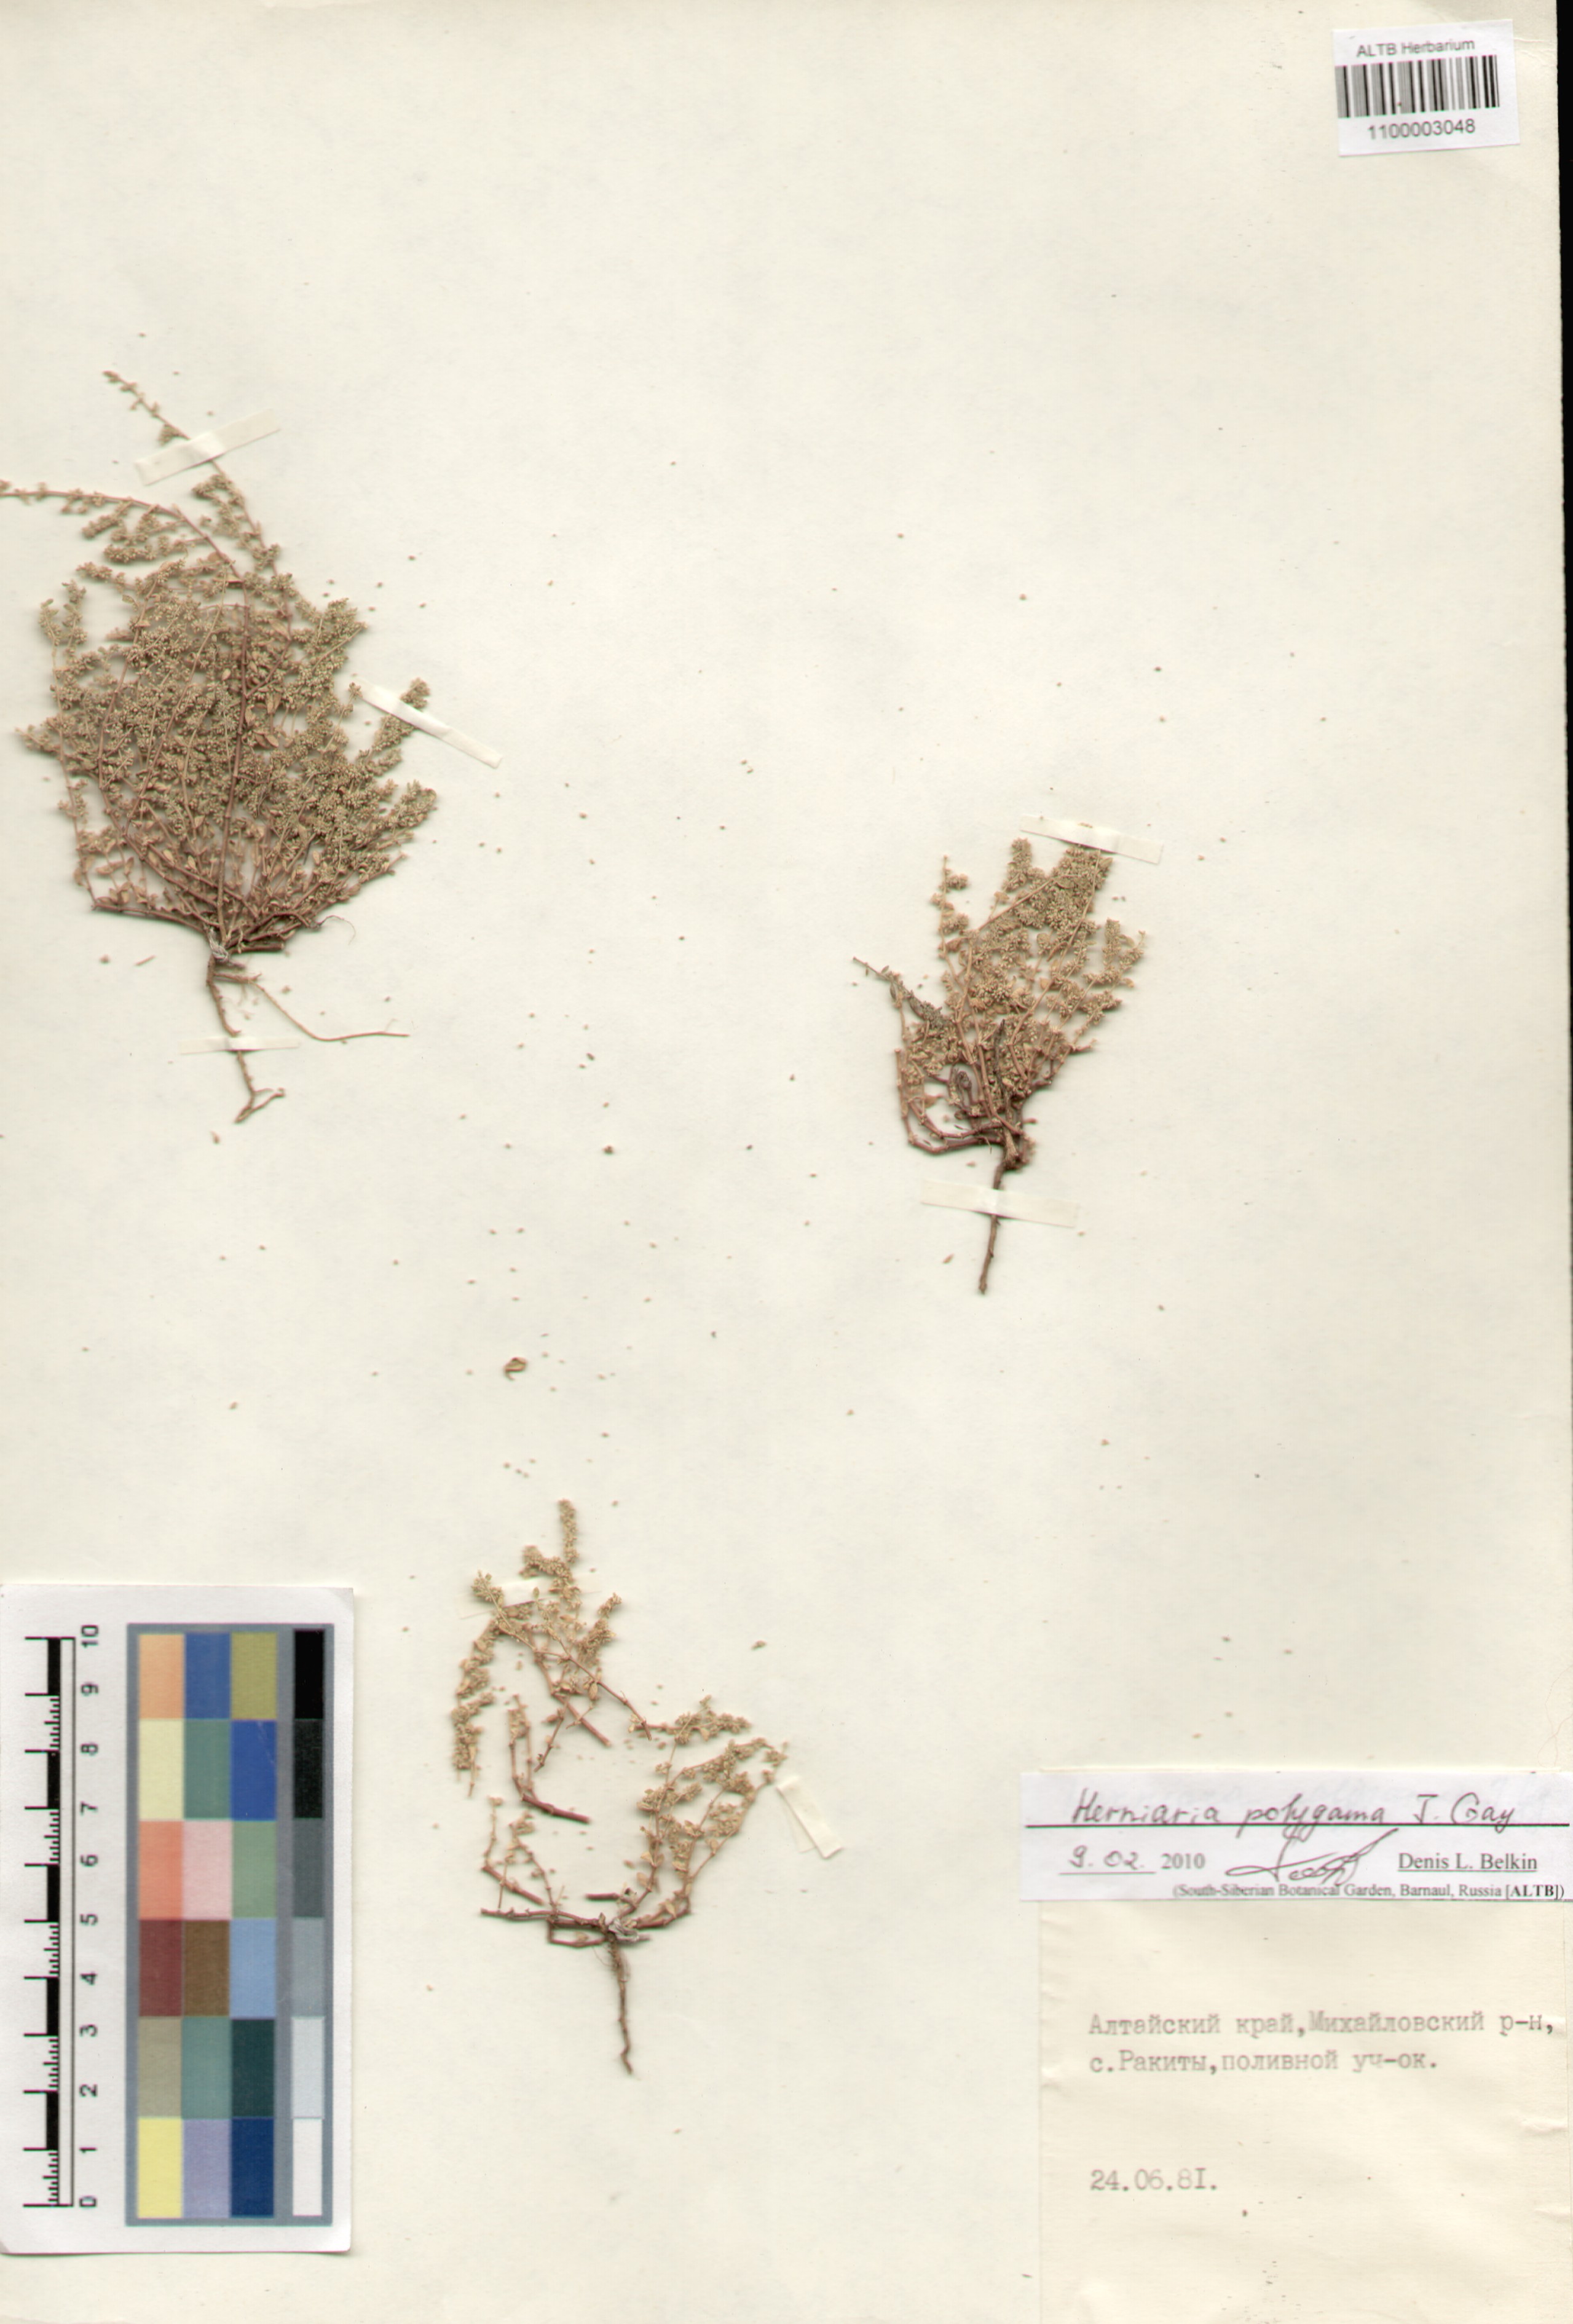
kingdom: Plantae
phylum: Tracheophyta
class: Magnoliopsida
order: Caryophyllales
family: Caryophyllaceae
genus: Herniaria
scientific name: Herniaria polygama
